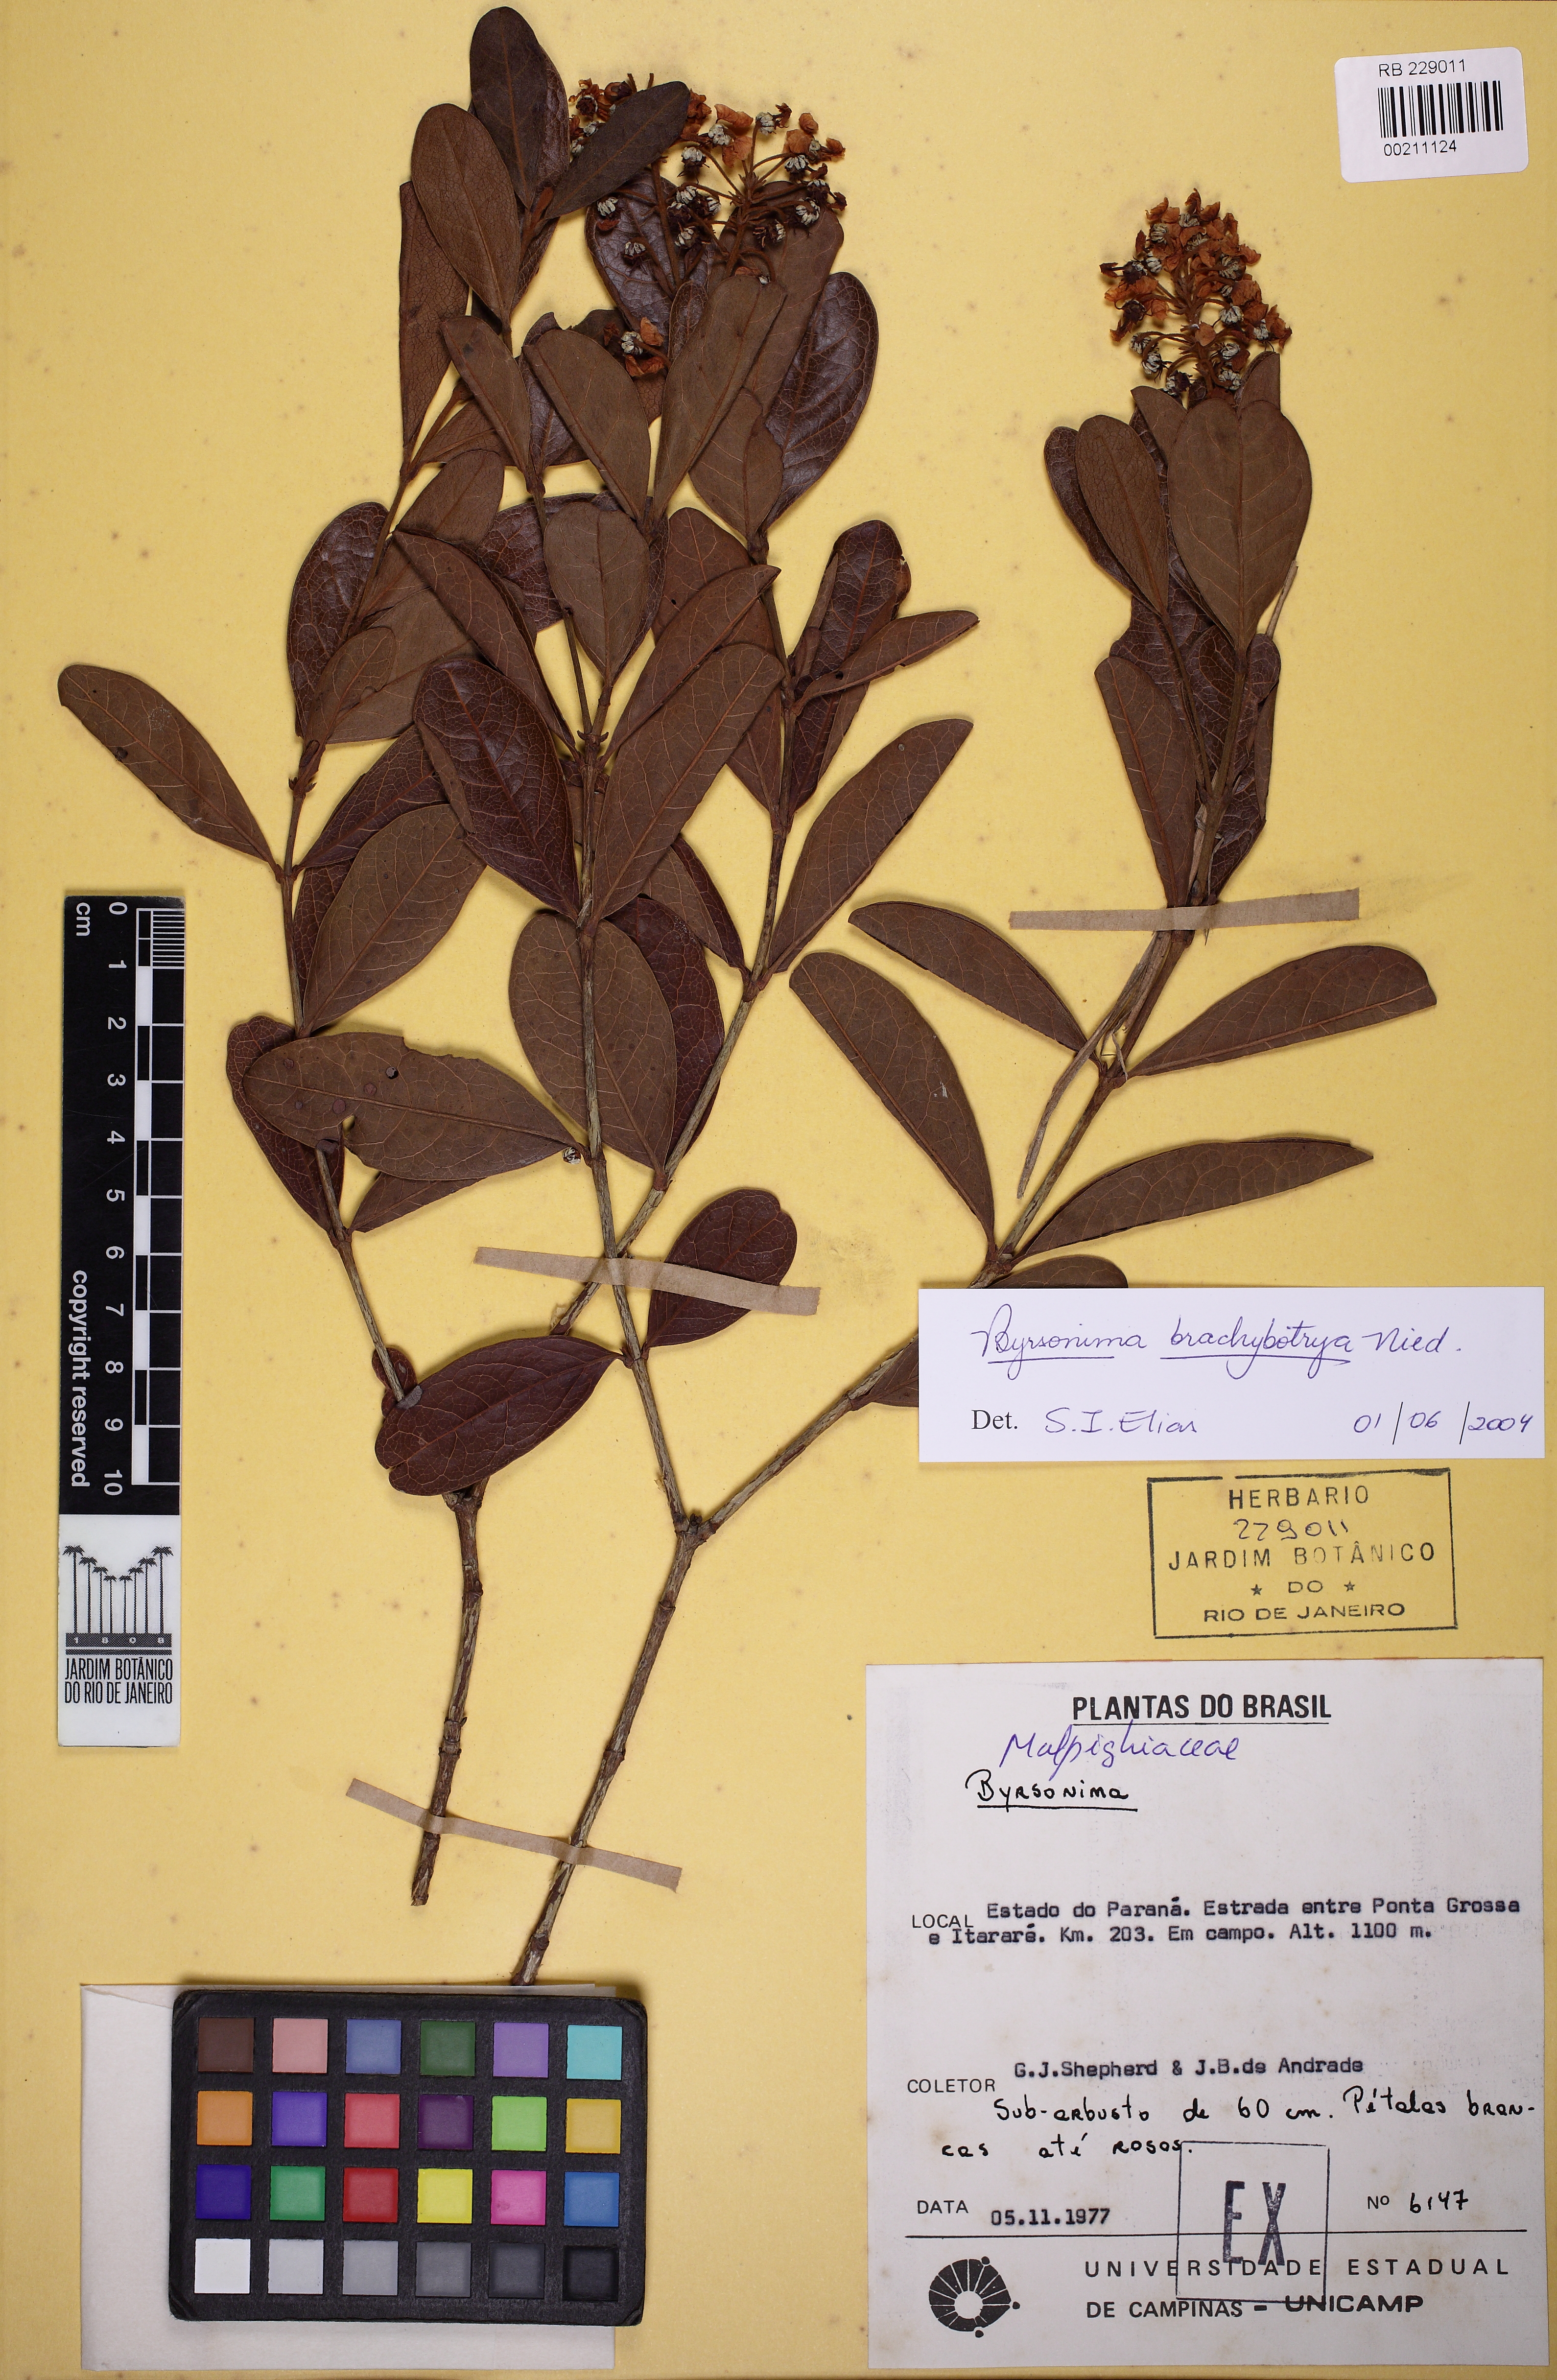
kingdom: Plantae
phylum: Tracheophyta
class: Magnoliopsida
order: Malpighiales
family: Malpighiaceae
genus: Byrsonima
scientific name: Byrsonima brachybotrya
